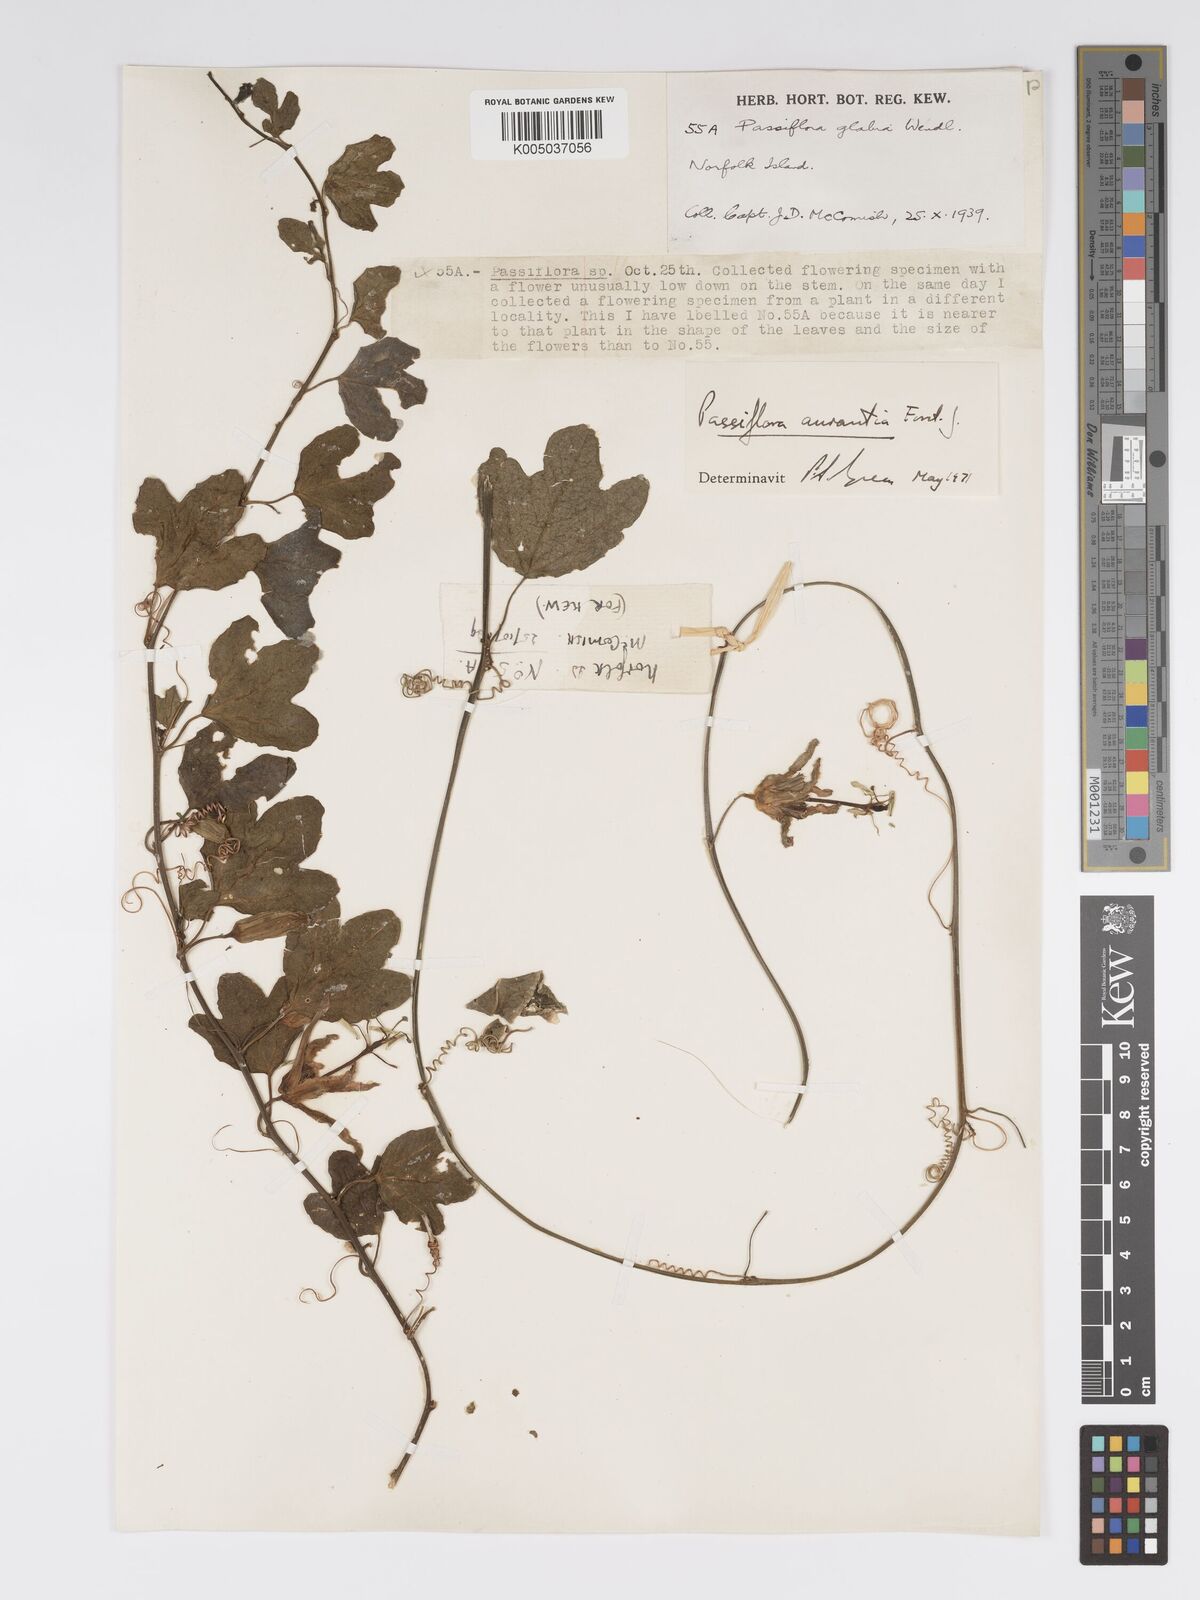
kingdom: Plantae
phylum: Tracheophyta
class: Magnoliopsida
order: Malpighiales
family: Passifloraceae
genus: Passiflora
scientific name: Passiflora aurantia
